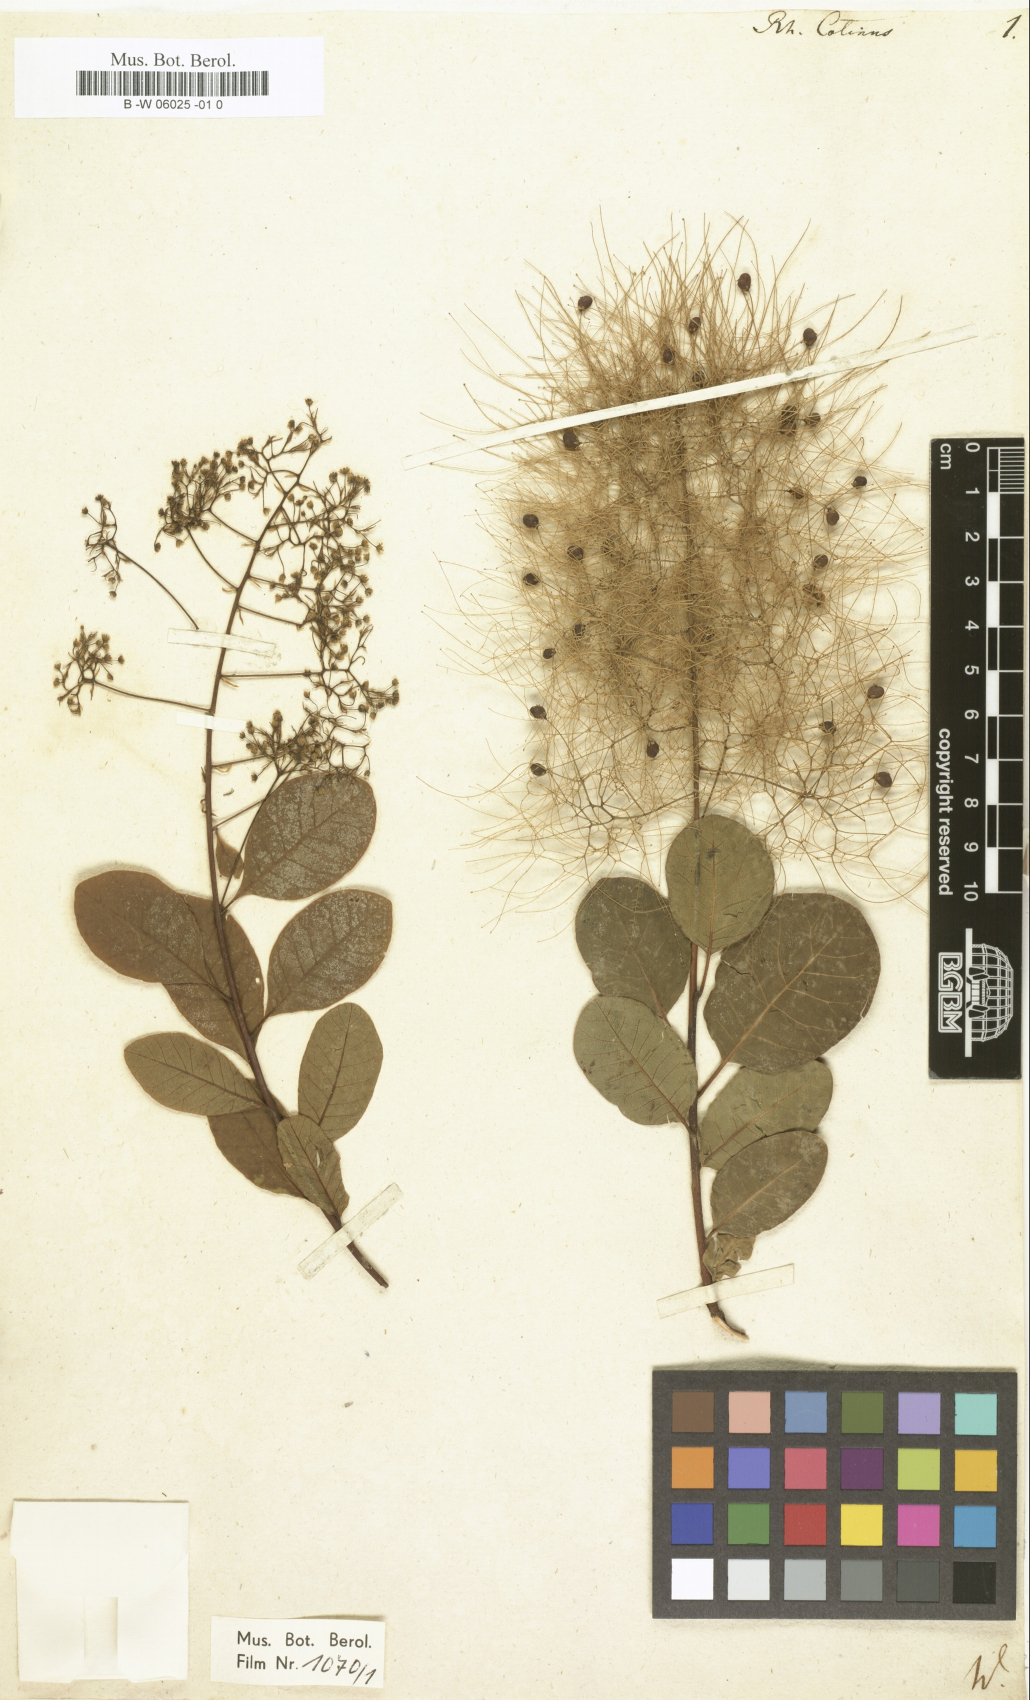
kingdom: Plantae
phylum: Tracheophyta
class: Magnoliopsida
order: Sapindales
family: Anacardiaceae
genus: Cotinus
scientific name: Cotinus
